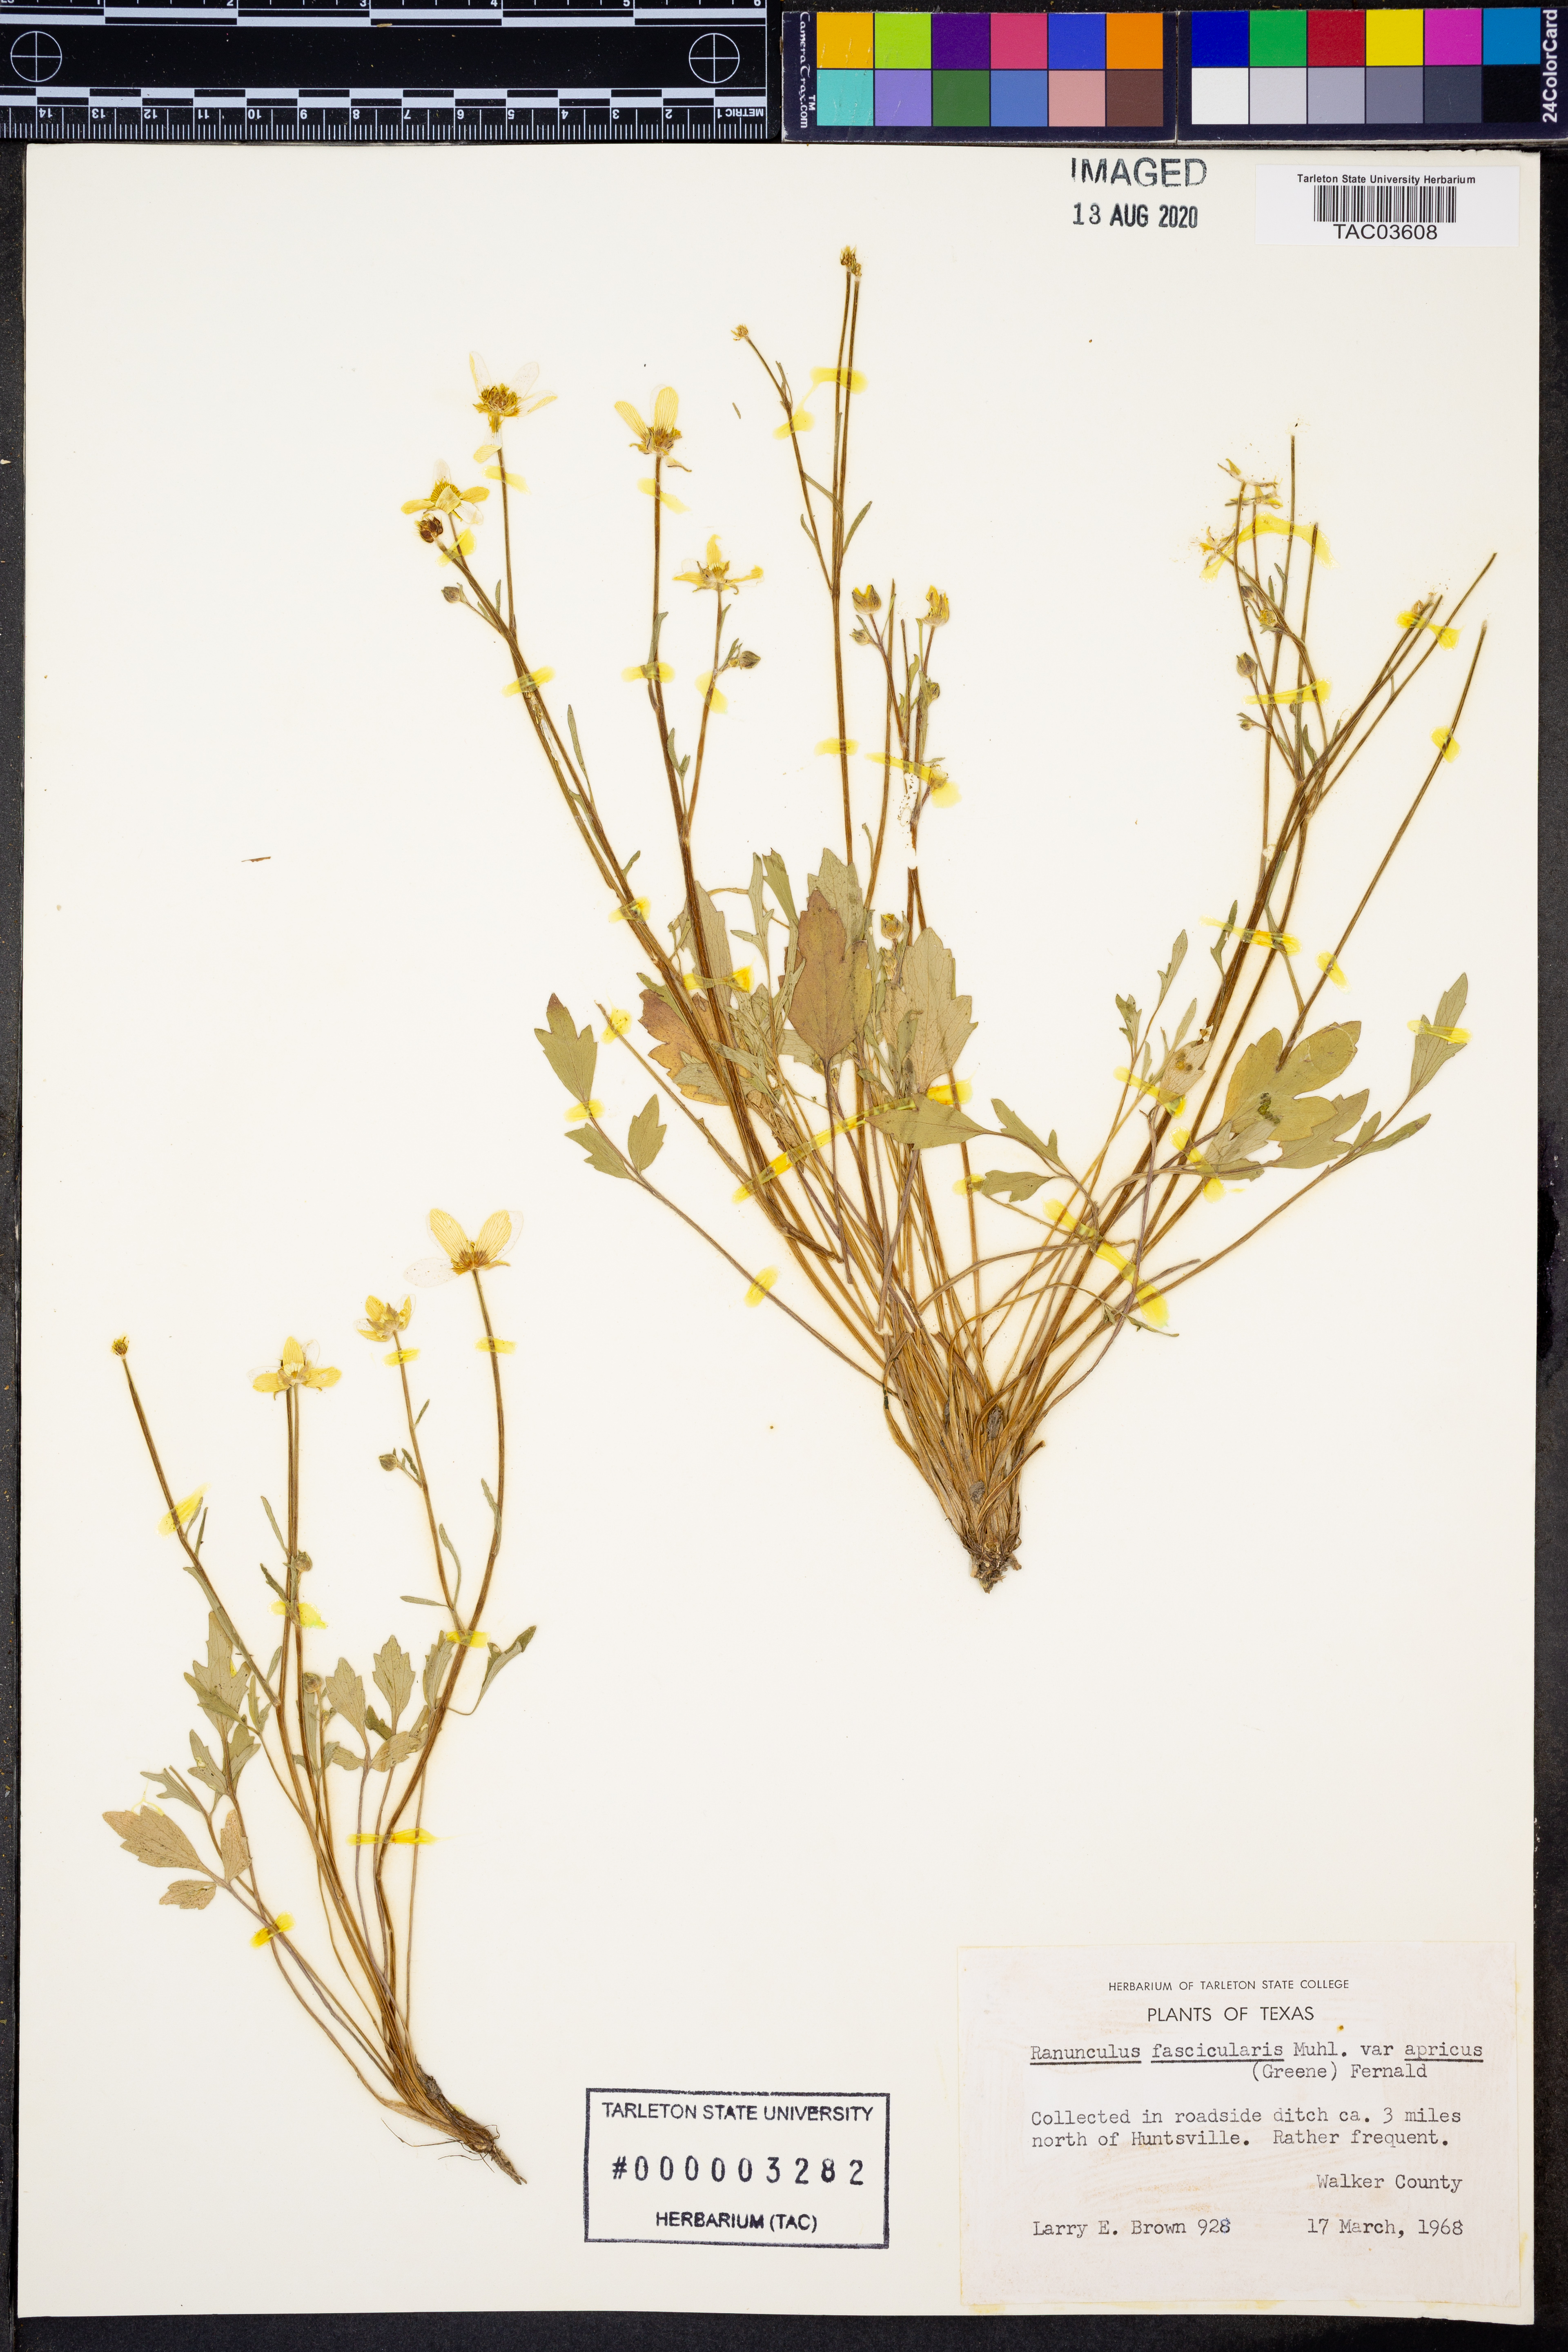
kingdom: Plantae
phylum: Tracheophyta
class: Magnoliopsida
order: Ranunculales
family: Ranunculaceae
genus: Ranunculus
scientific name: Ranunculus fascicularis
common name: Early buttercup
